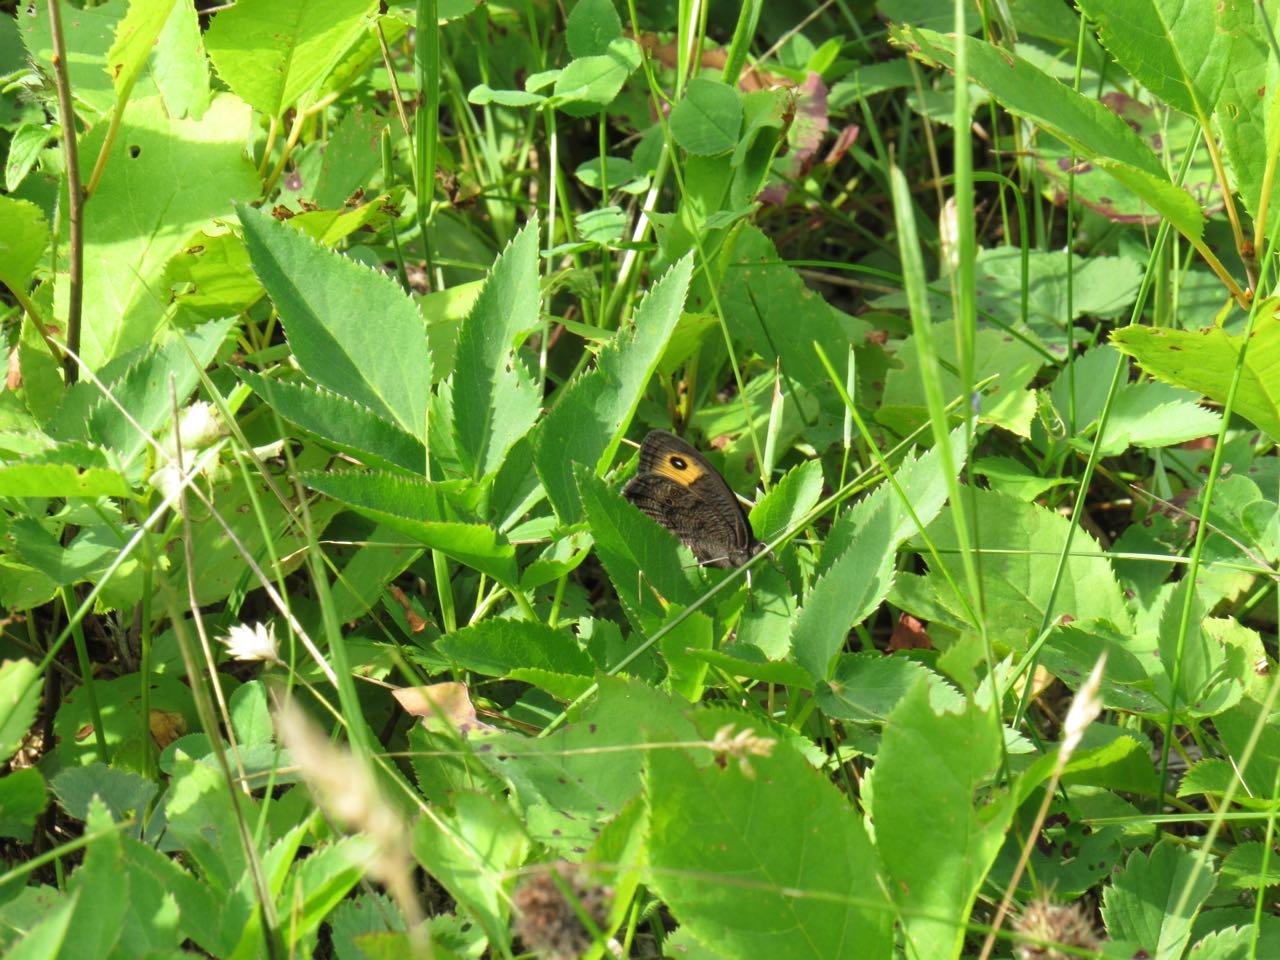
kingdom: Animalia
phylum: Arthropoda
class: Insecta
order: Lepidoptera
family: Nymphalidae
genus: Cercyonis
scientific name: Cercyonis pegala
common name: Common Wood-Nymph
